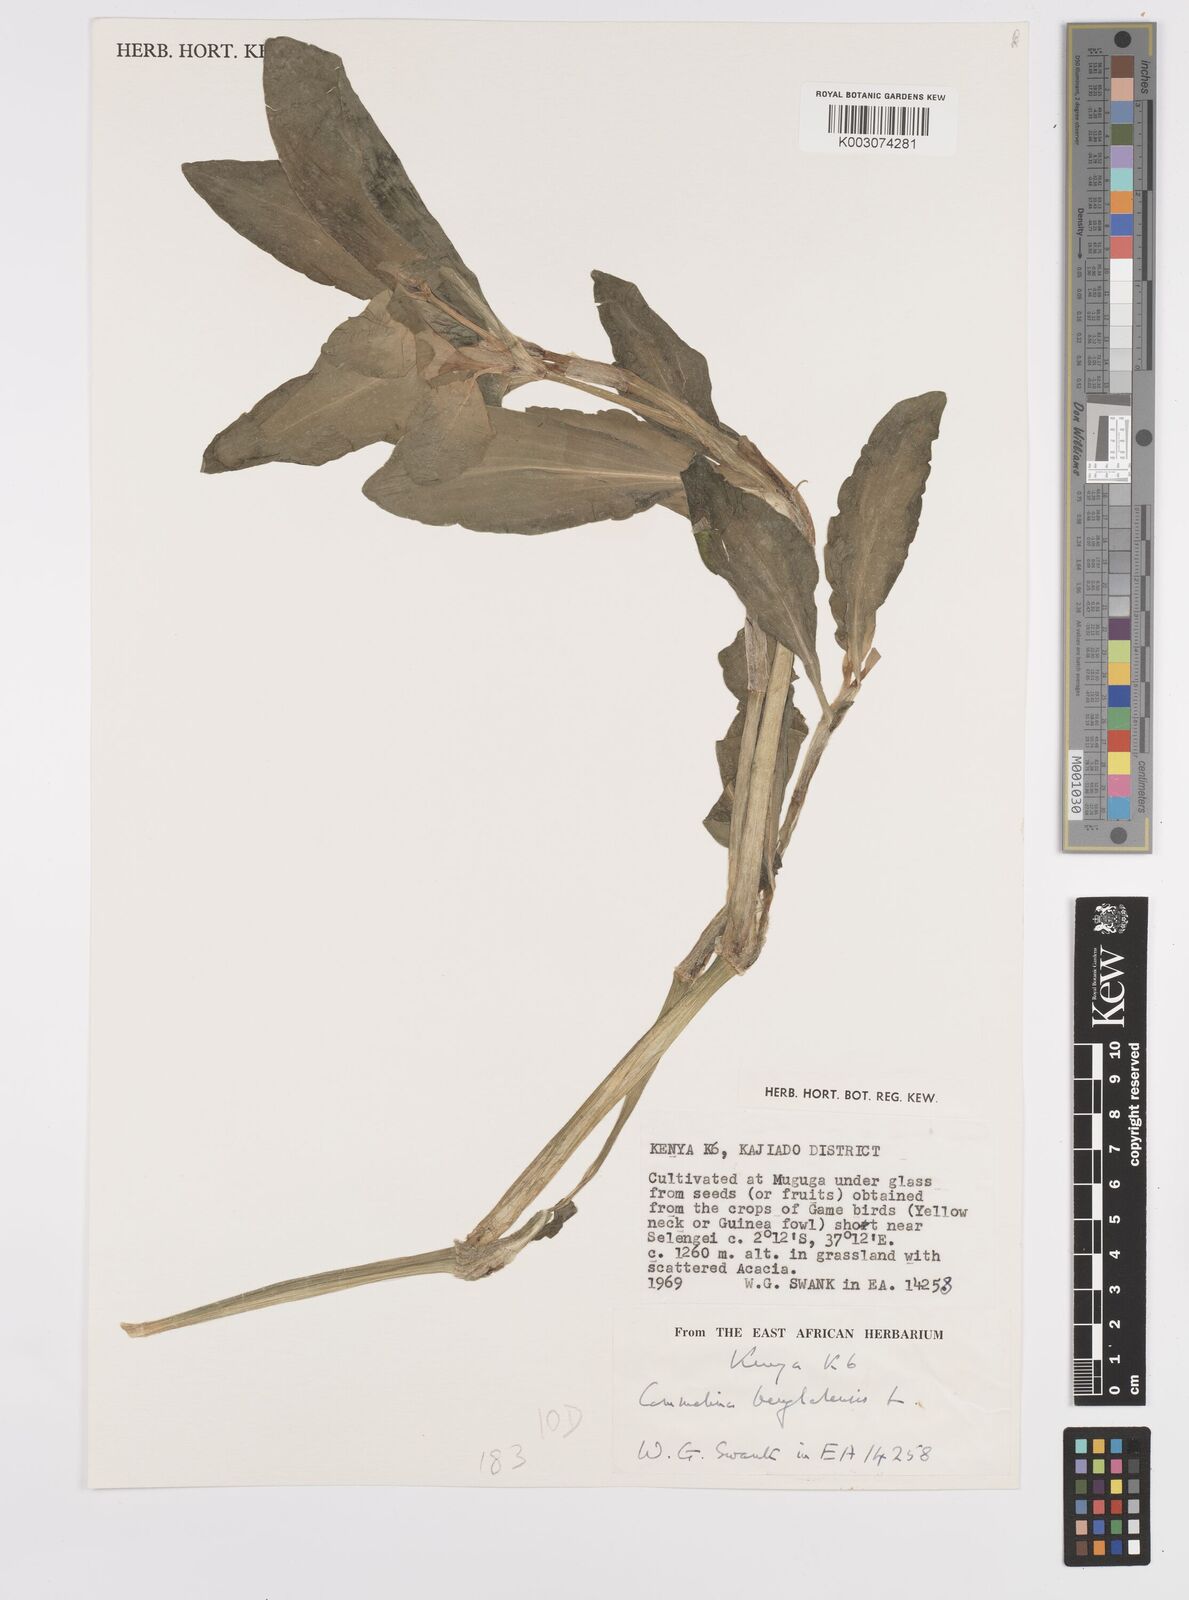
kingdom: Plantae
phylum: Tracheophyta
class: Liliopsida
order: Commelinales
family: Commelinaceae
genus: Commelina
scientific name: Commelina benghalensis
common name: Jio
